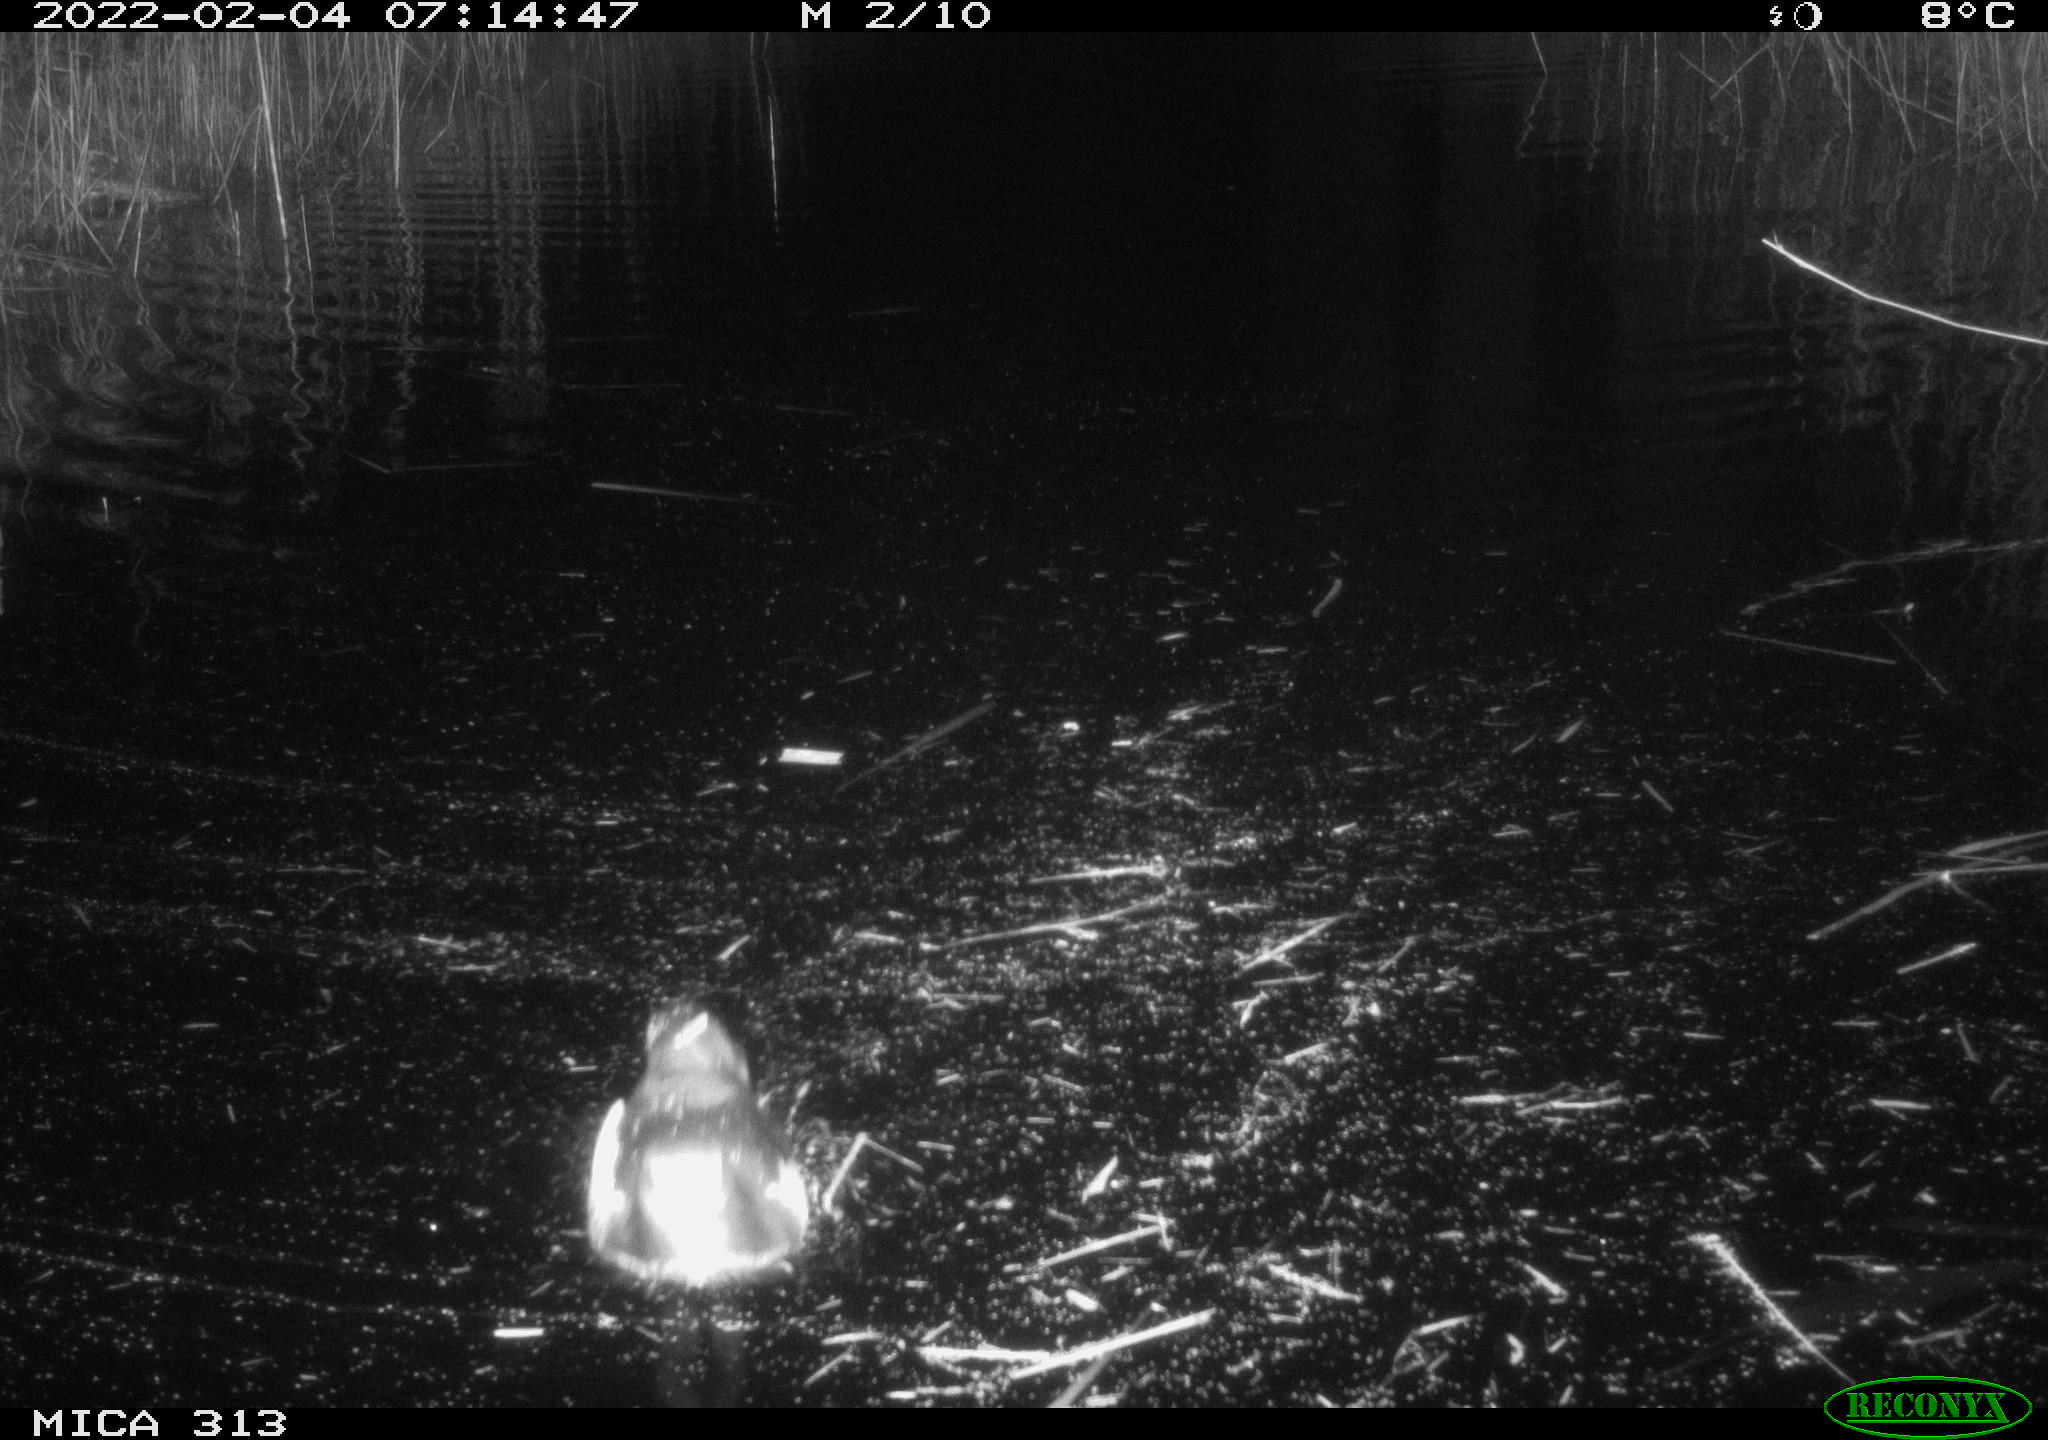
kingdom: Animalia
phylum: Chordata
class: Aves
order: Gruiformes
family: Rallidae
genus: Gallinula
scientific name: Gallinula chloropus
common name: Common moorhen
